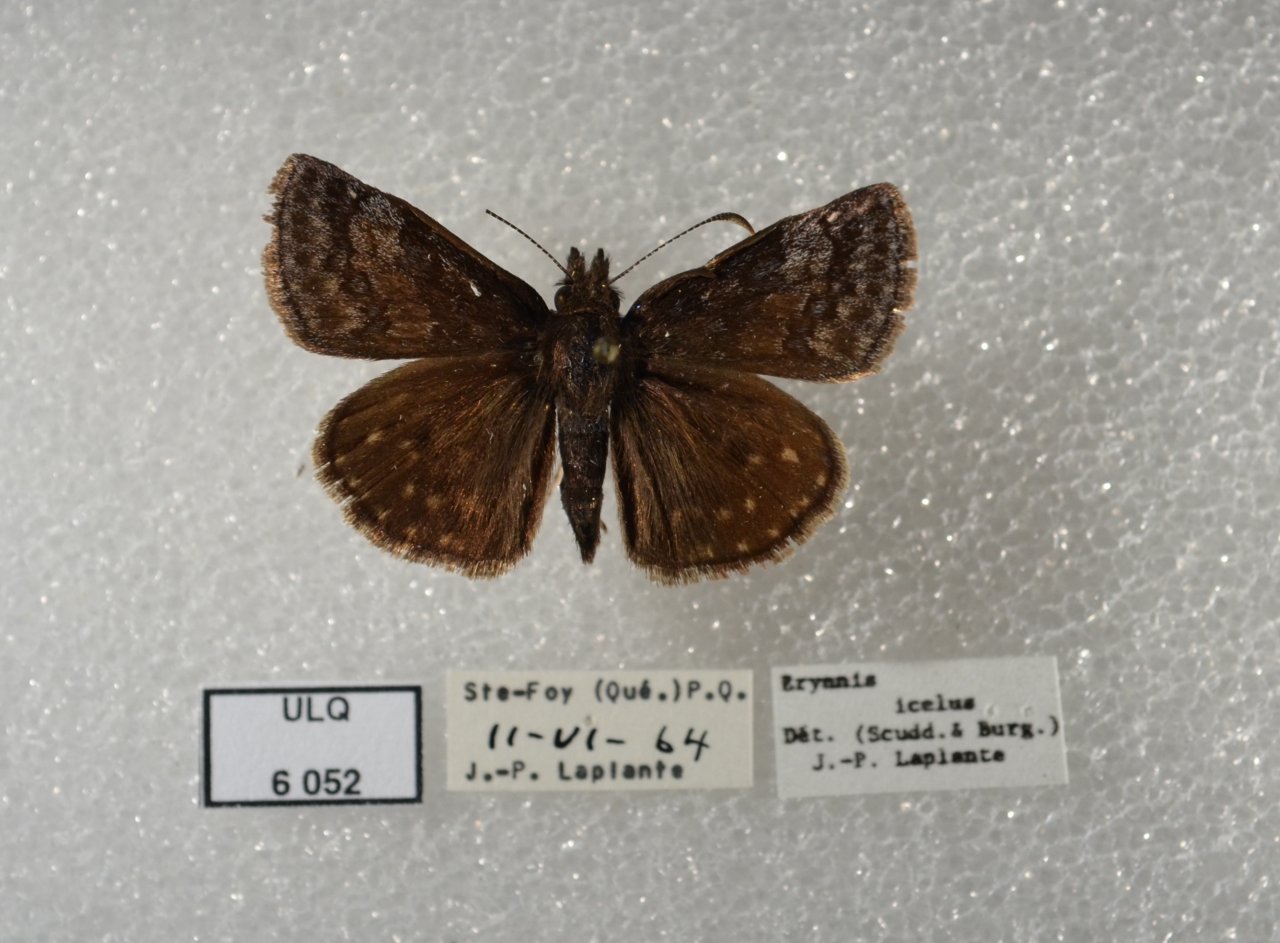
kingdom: Animalia
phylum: Arthropoda
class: Insecta
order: Lepidoptera
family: Hesperiidae
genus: Erynnis
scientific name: Erynnis icelus
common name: Dreamy Duskywing
